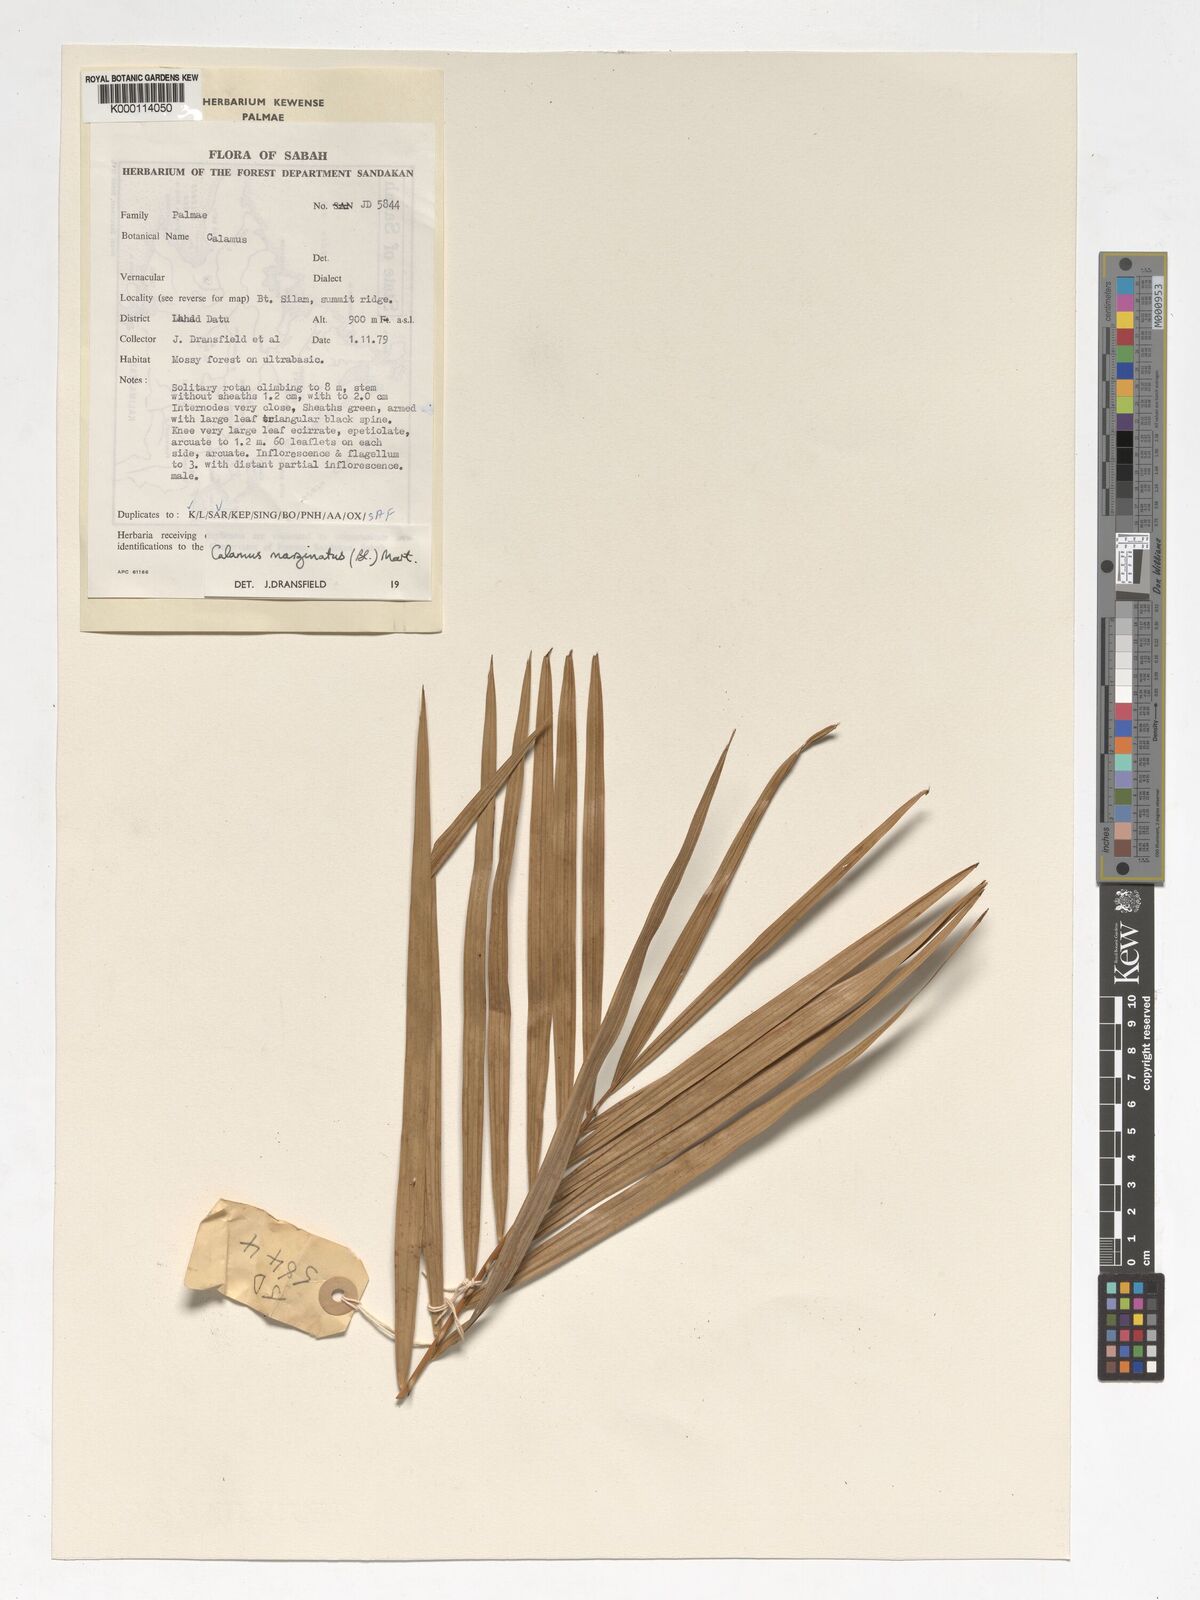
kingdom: Plantae
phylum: Tracheophyta
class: Liliopsida
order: Arecales
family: Arecaceae
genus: Calamus
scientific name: Calamus
